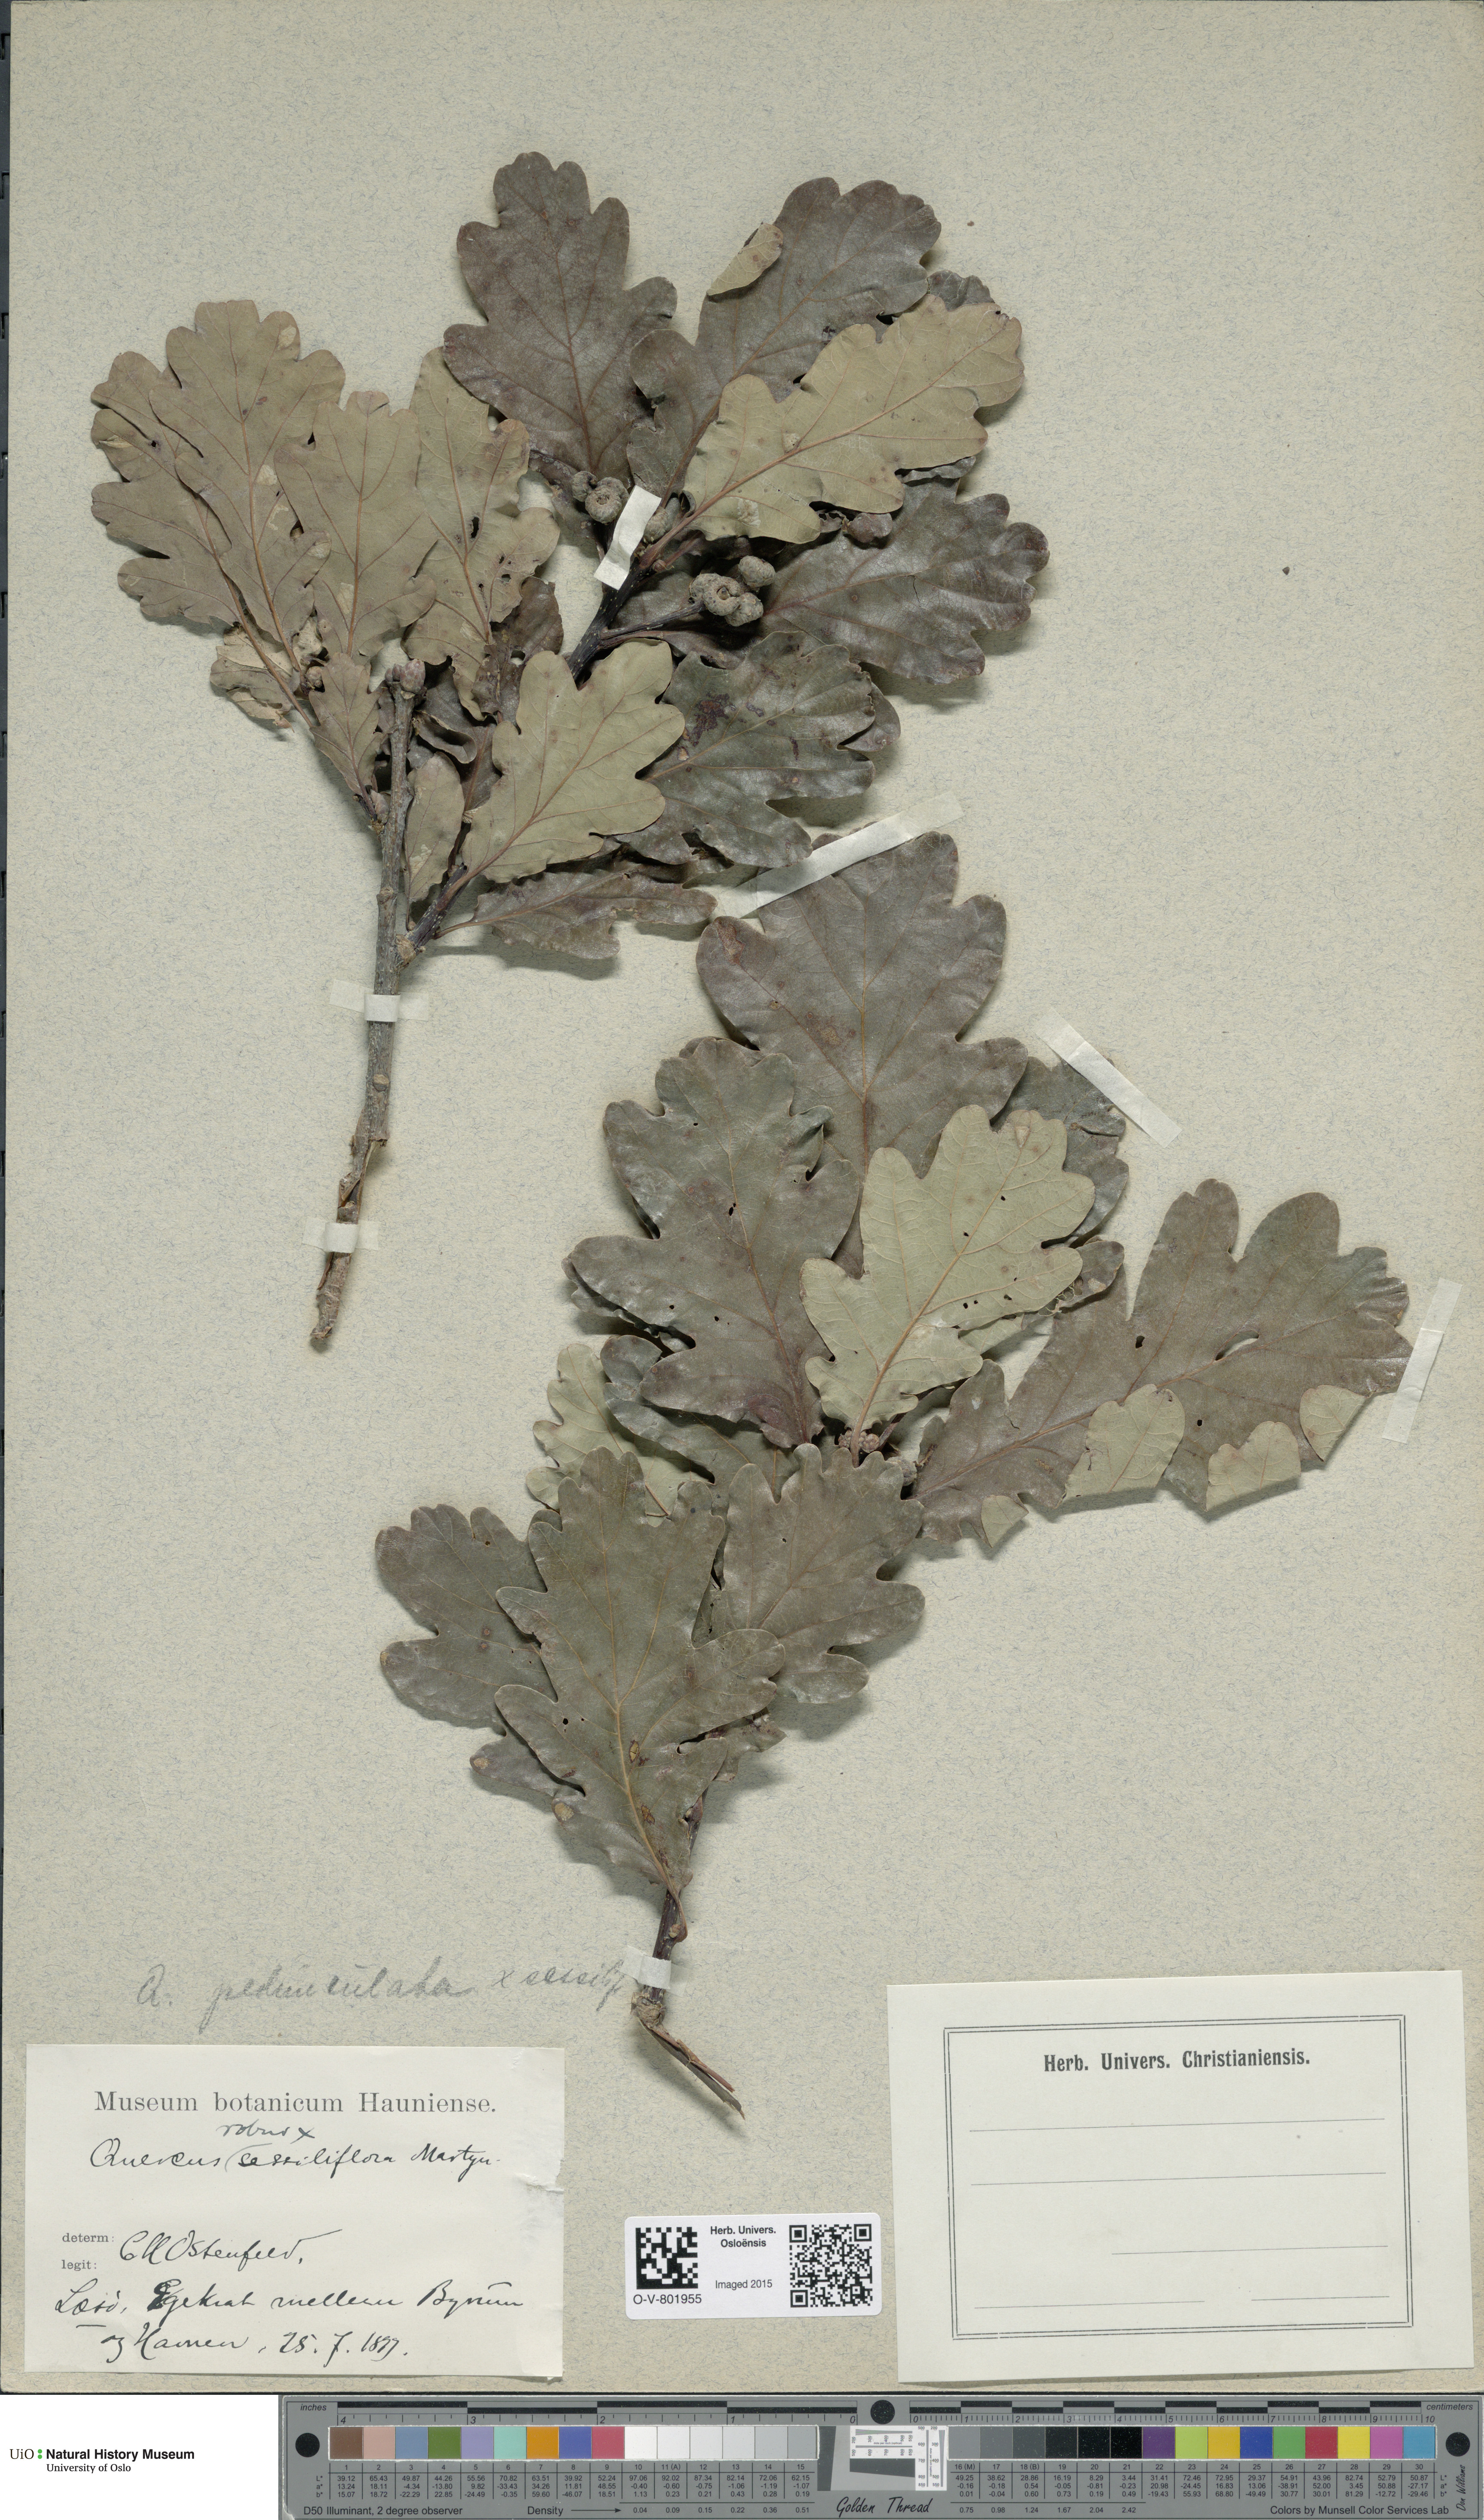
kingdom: Plantae
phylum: Tracheophyta
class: Magnoliopsida
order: Fagales
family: Fagaceae
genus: Quercus
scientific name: Quercus
